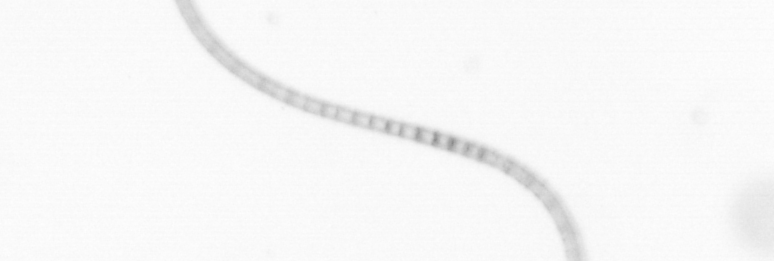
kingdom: Chromista
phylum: Ochrophyta
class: Bacillariophyceae
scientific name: Bacillariophyceae
